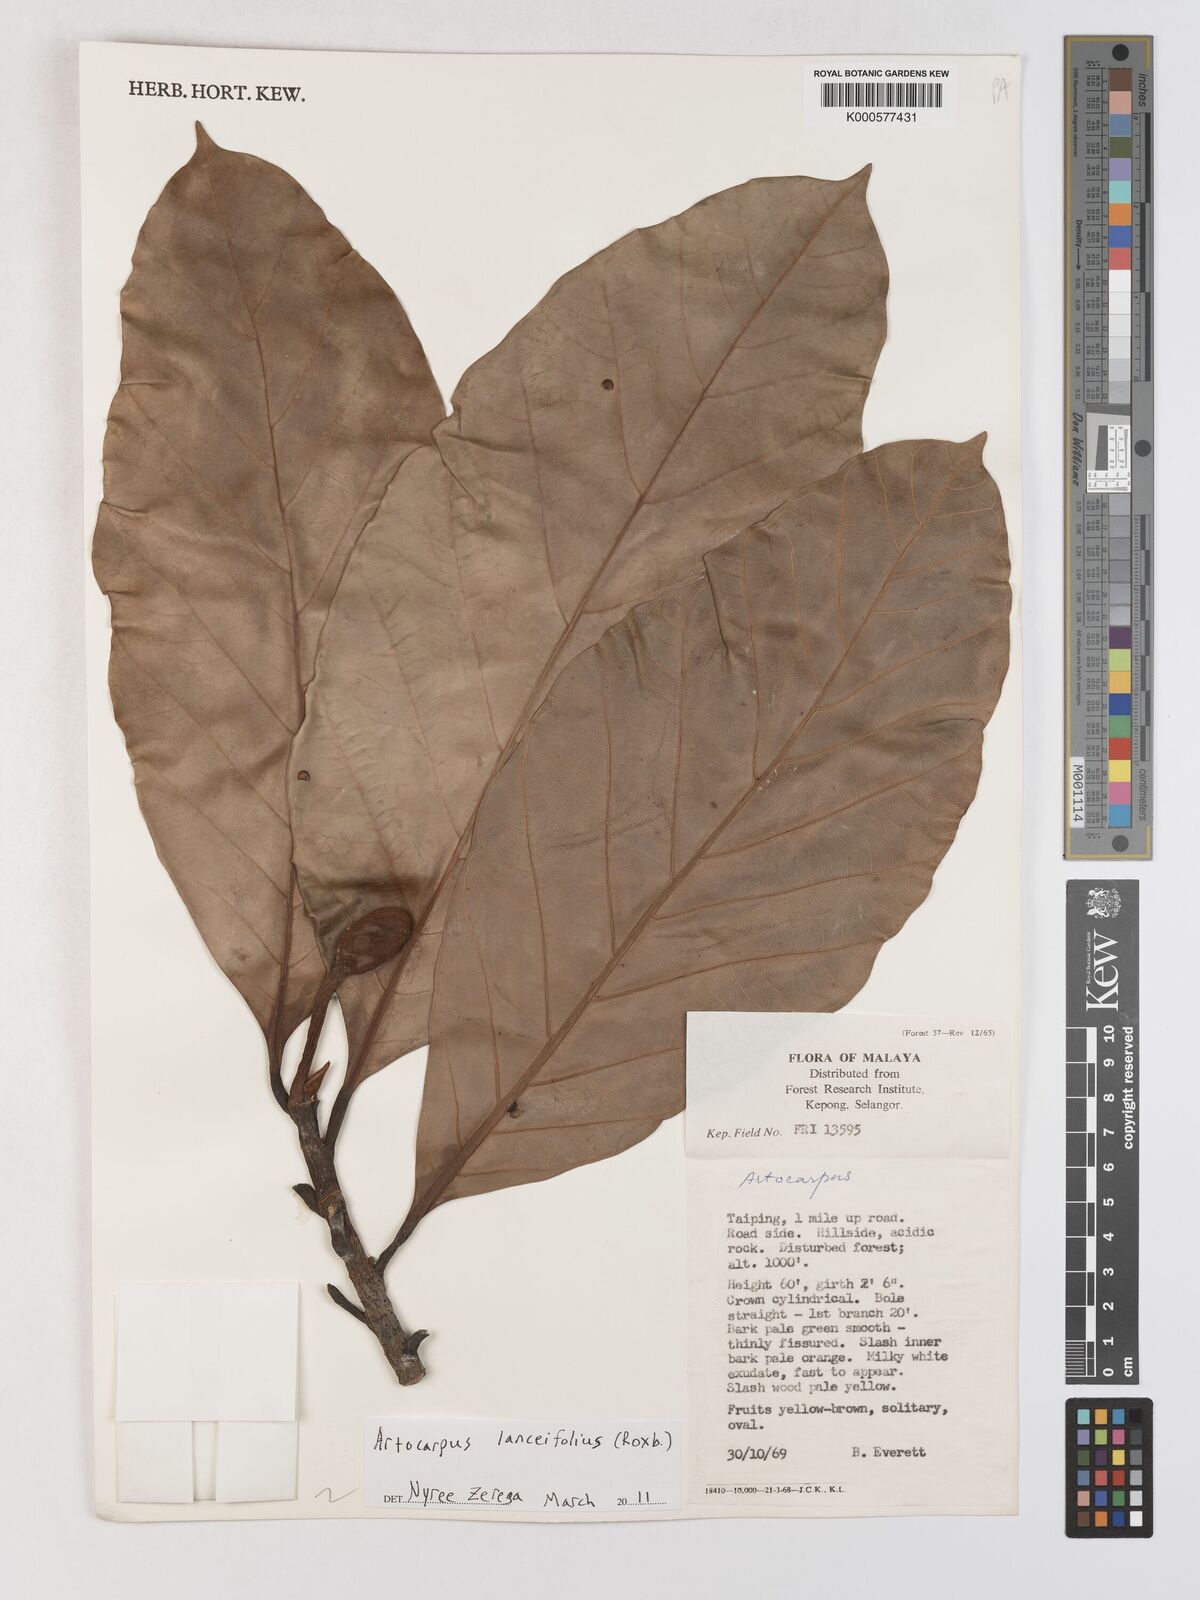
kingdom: Plantae
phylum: Tracheophyta
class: Magnoliopsida
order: Rosales
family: Moraceae
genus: Artocarpus
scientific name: Artocarpus lanceifolius
